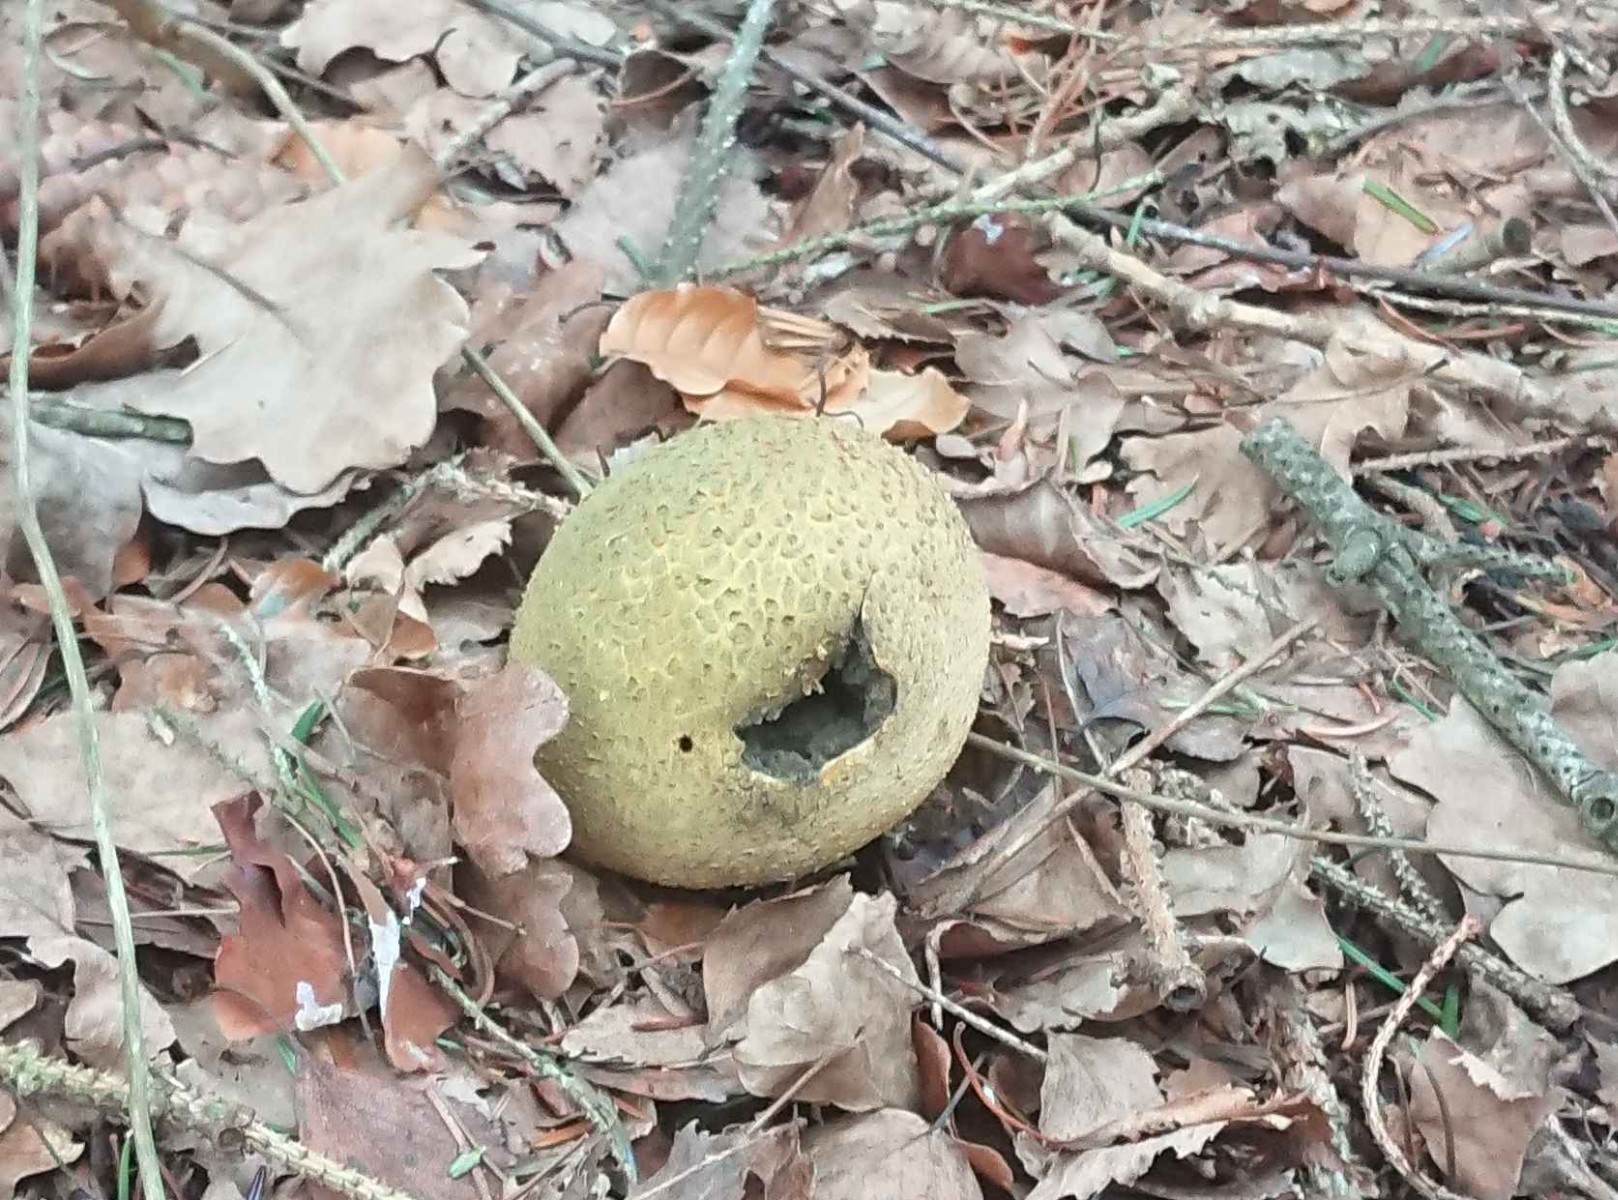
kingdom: Fungi
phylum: Basidiomycota
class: Agaricomycetes
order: Boletales
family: Sclerodermataceae
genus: Scleroderma
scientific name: Scleroderma citrinum
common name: almindelig bruskbold
